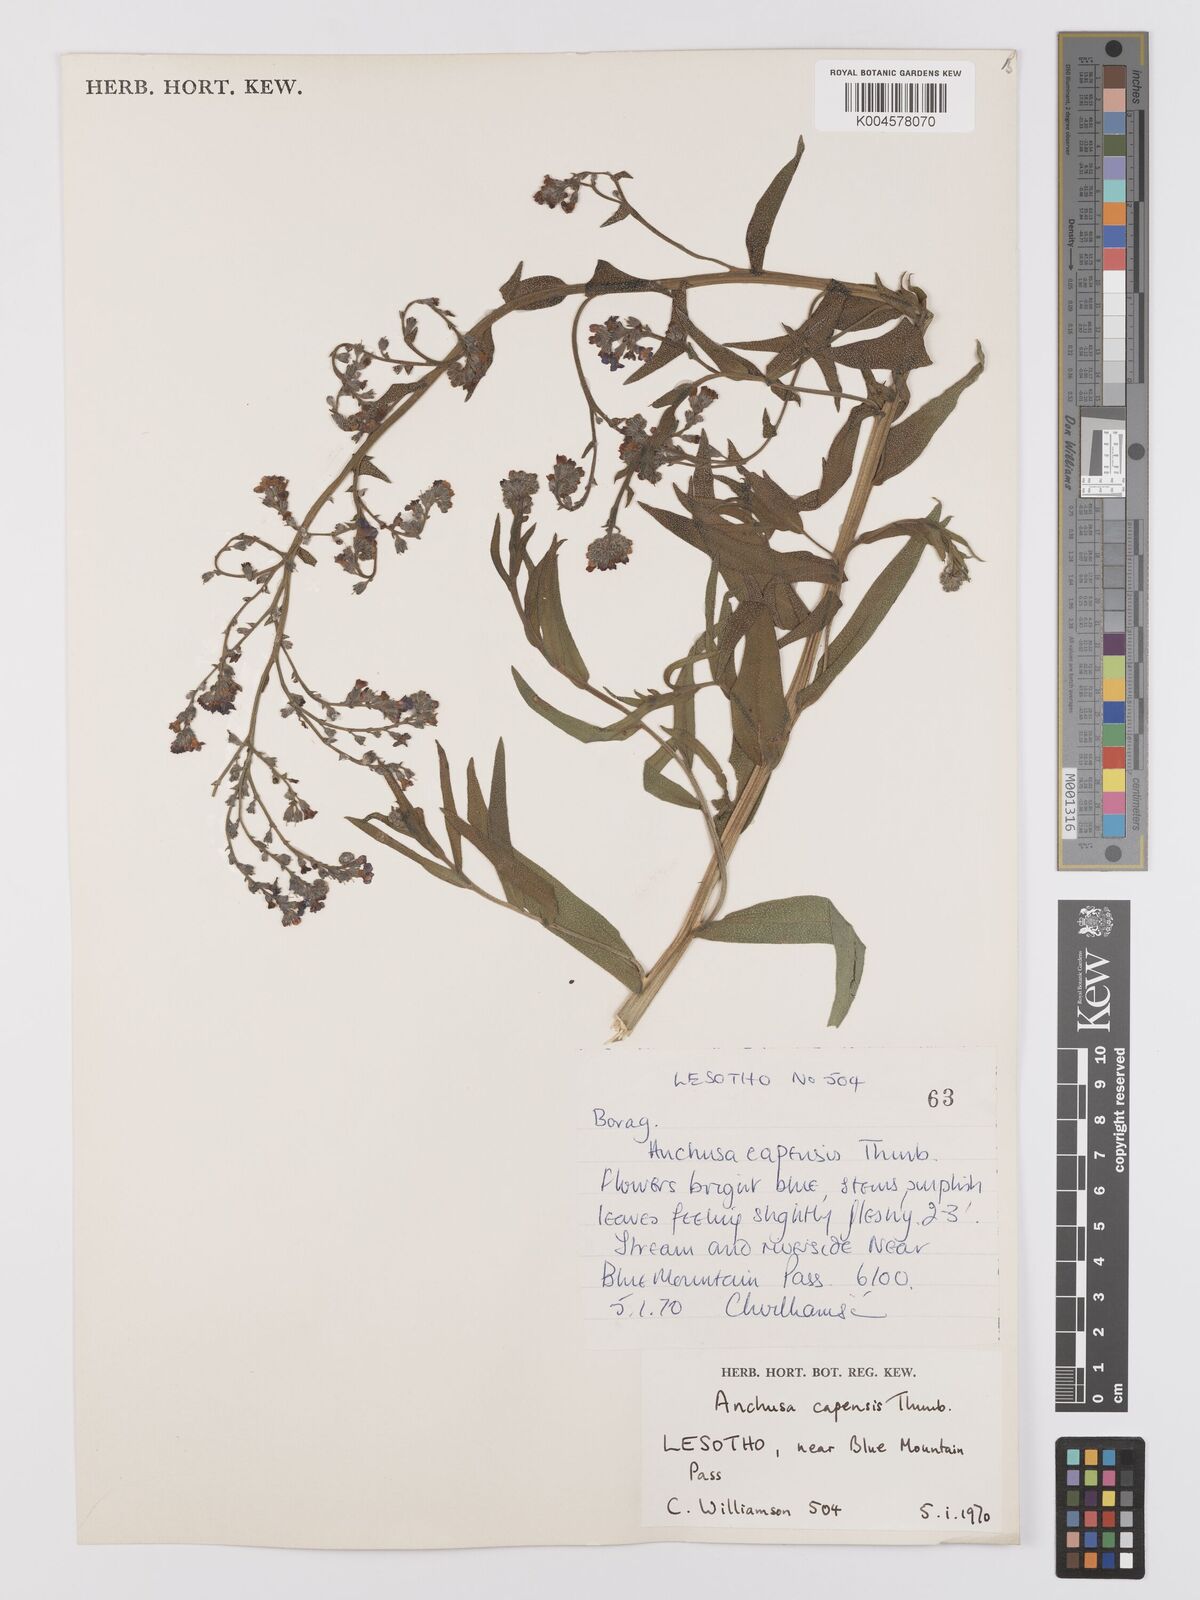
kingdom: Plantae
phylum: Tracheophyta
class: Magnoliopsida
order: Boraginales
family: Boraginaceae
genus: Anchusa
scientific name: Anchusa capensis
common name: Cape bugloss
